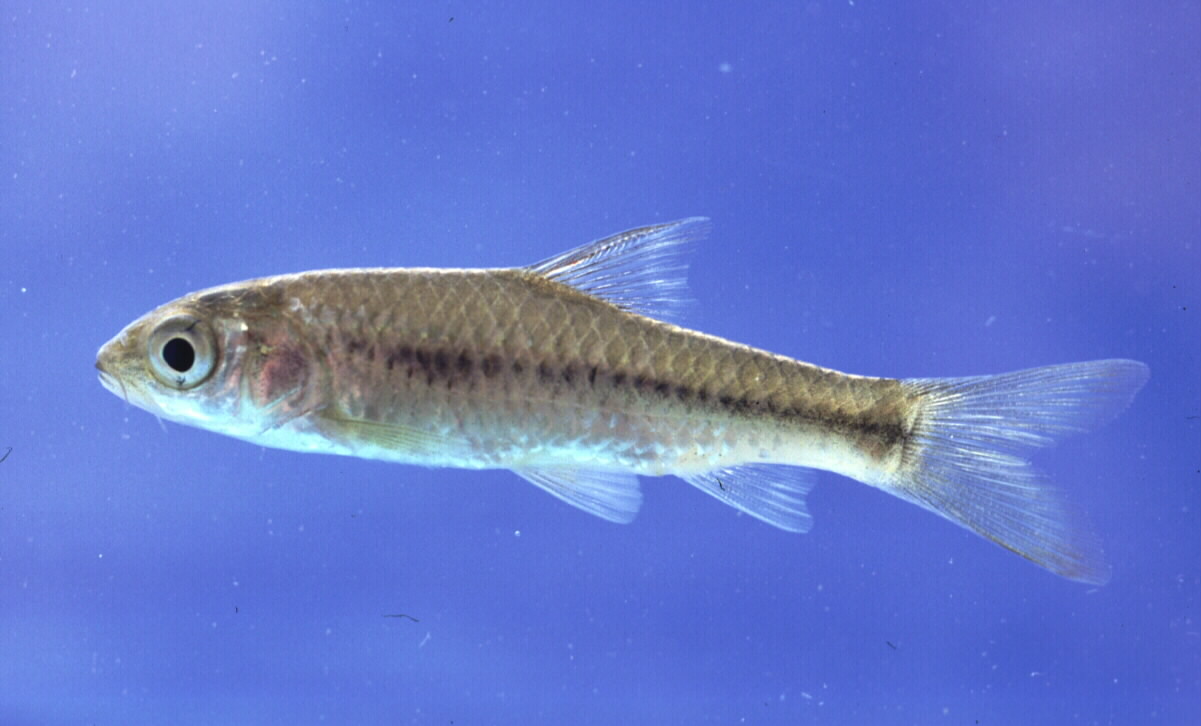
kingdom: Animalia
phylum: Chordata
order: Cypriniformes
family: Cyprinidae
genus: Enteromius
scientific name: Enteromius argenteus
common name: Rosefin barb
